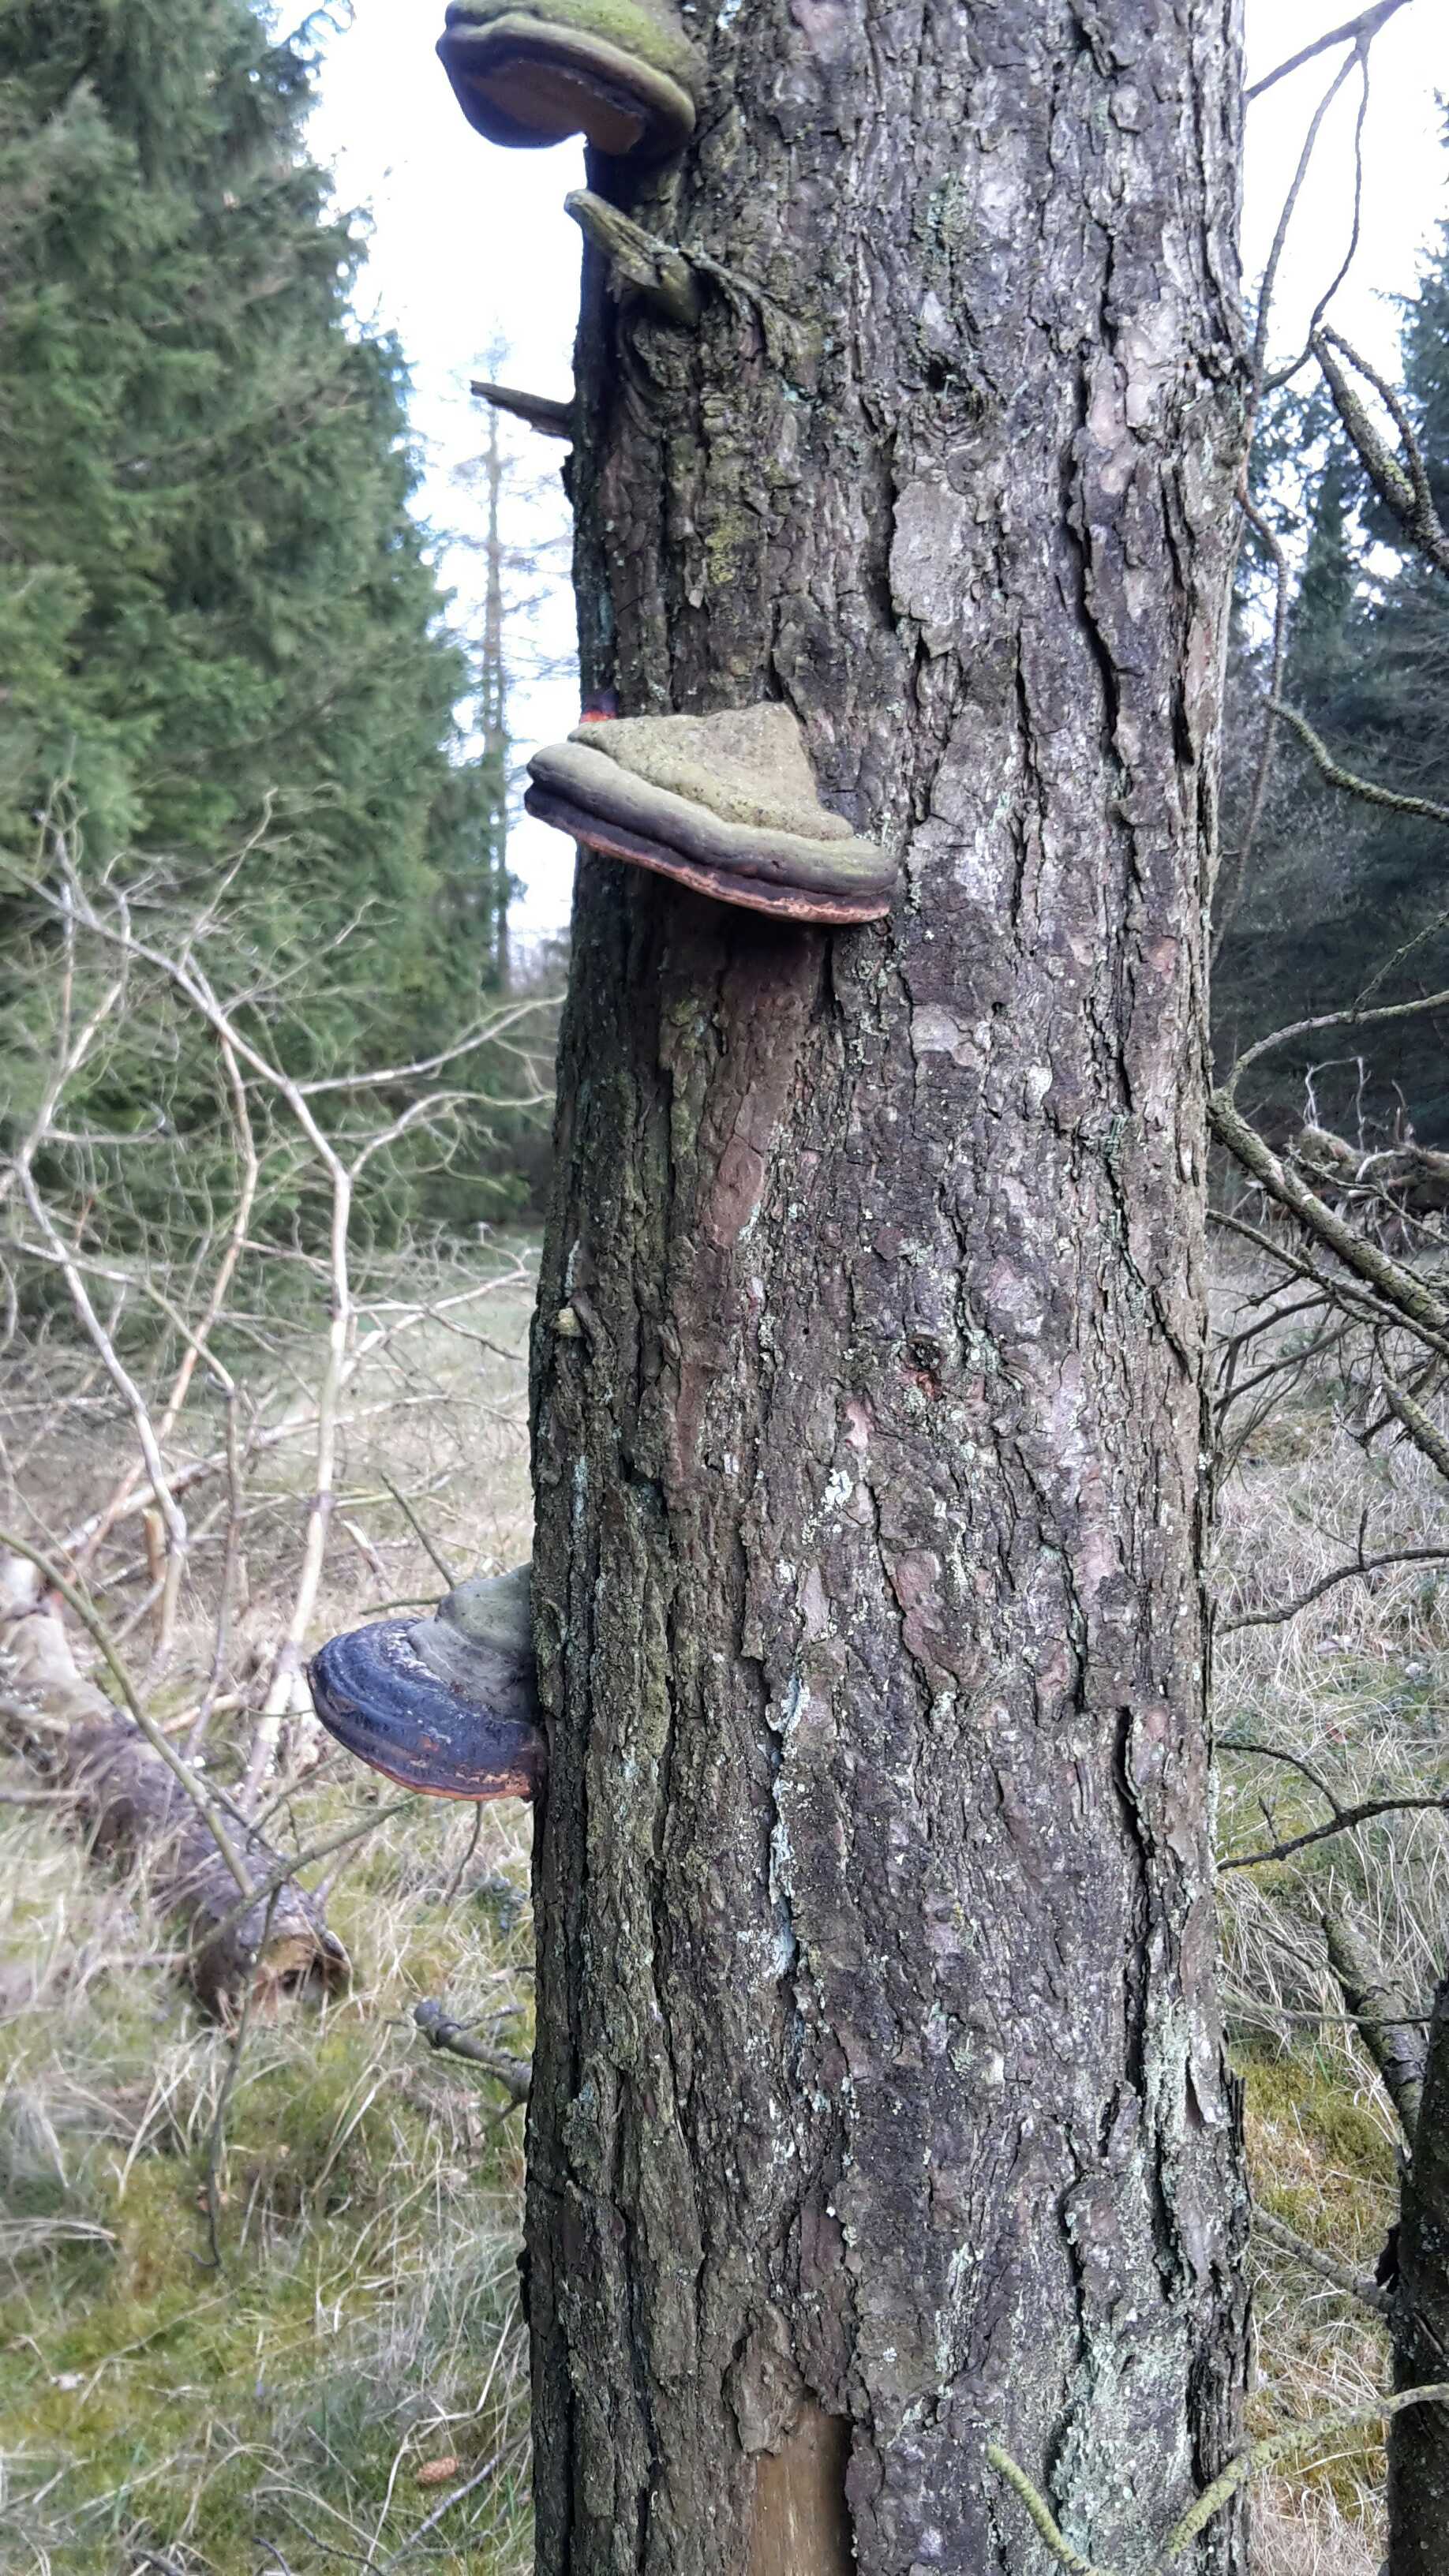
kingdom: Fungi
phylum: Basidiomycota
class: Agaricomycetes
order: Polyporales
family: Fomitopsidaceae
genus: Fomitopsis
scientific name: Fomitopsis pinicola
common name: randbæltet hovporesvamp
